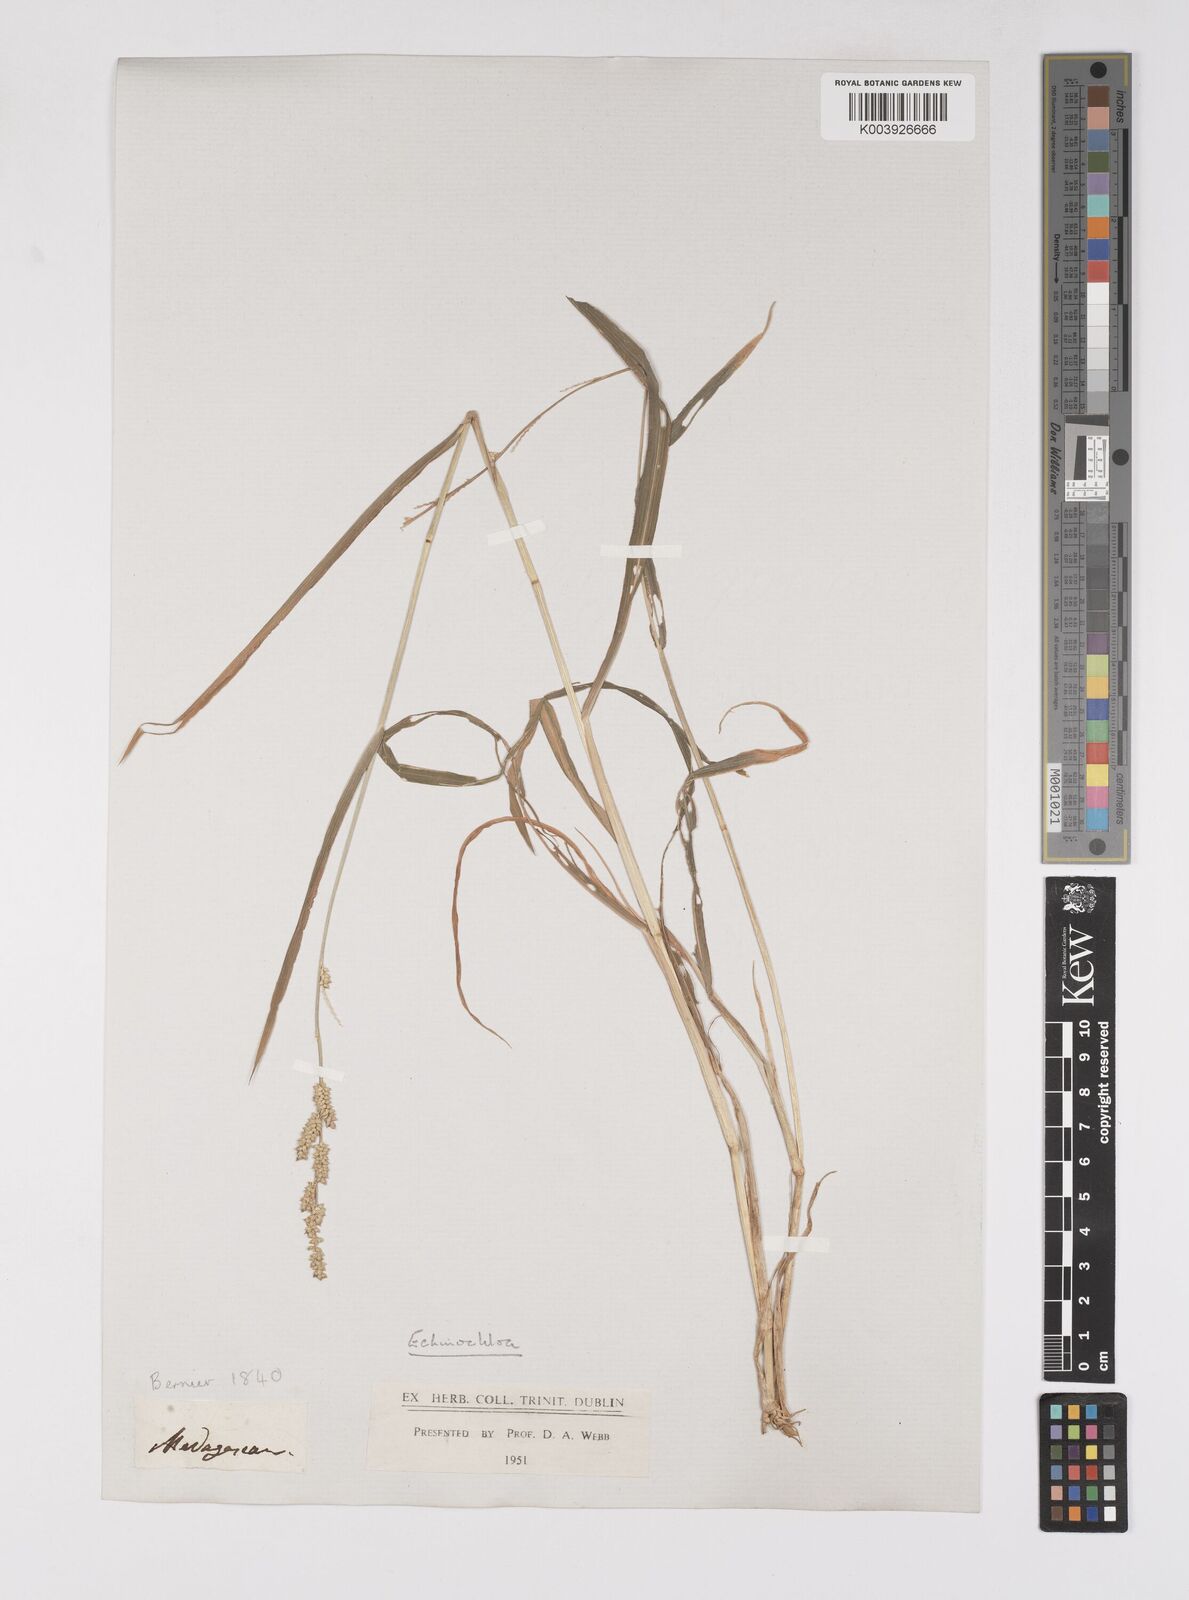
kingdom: Plantae
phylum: Tracheophyta
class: Liliopsida
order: Poales
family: Poaceae
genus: Echinochloa
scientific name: Echinochloa colonum
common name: Jungle rice
